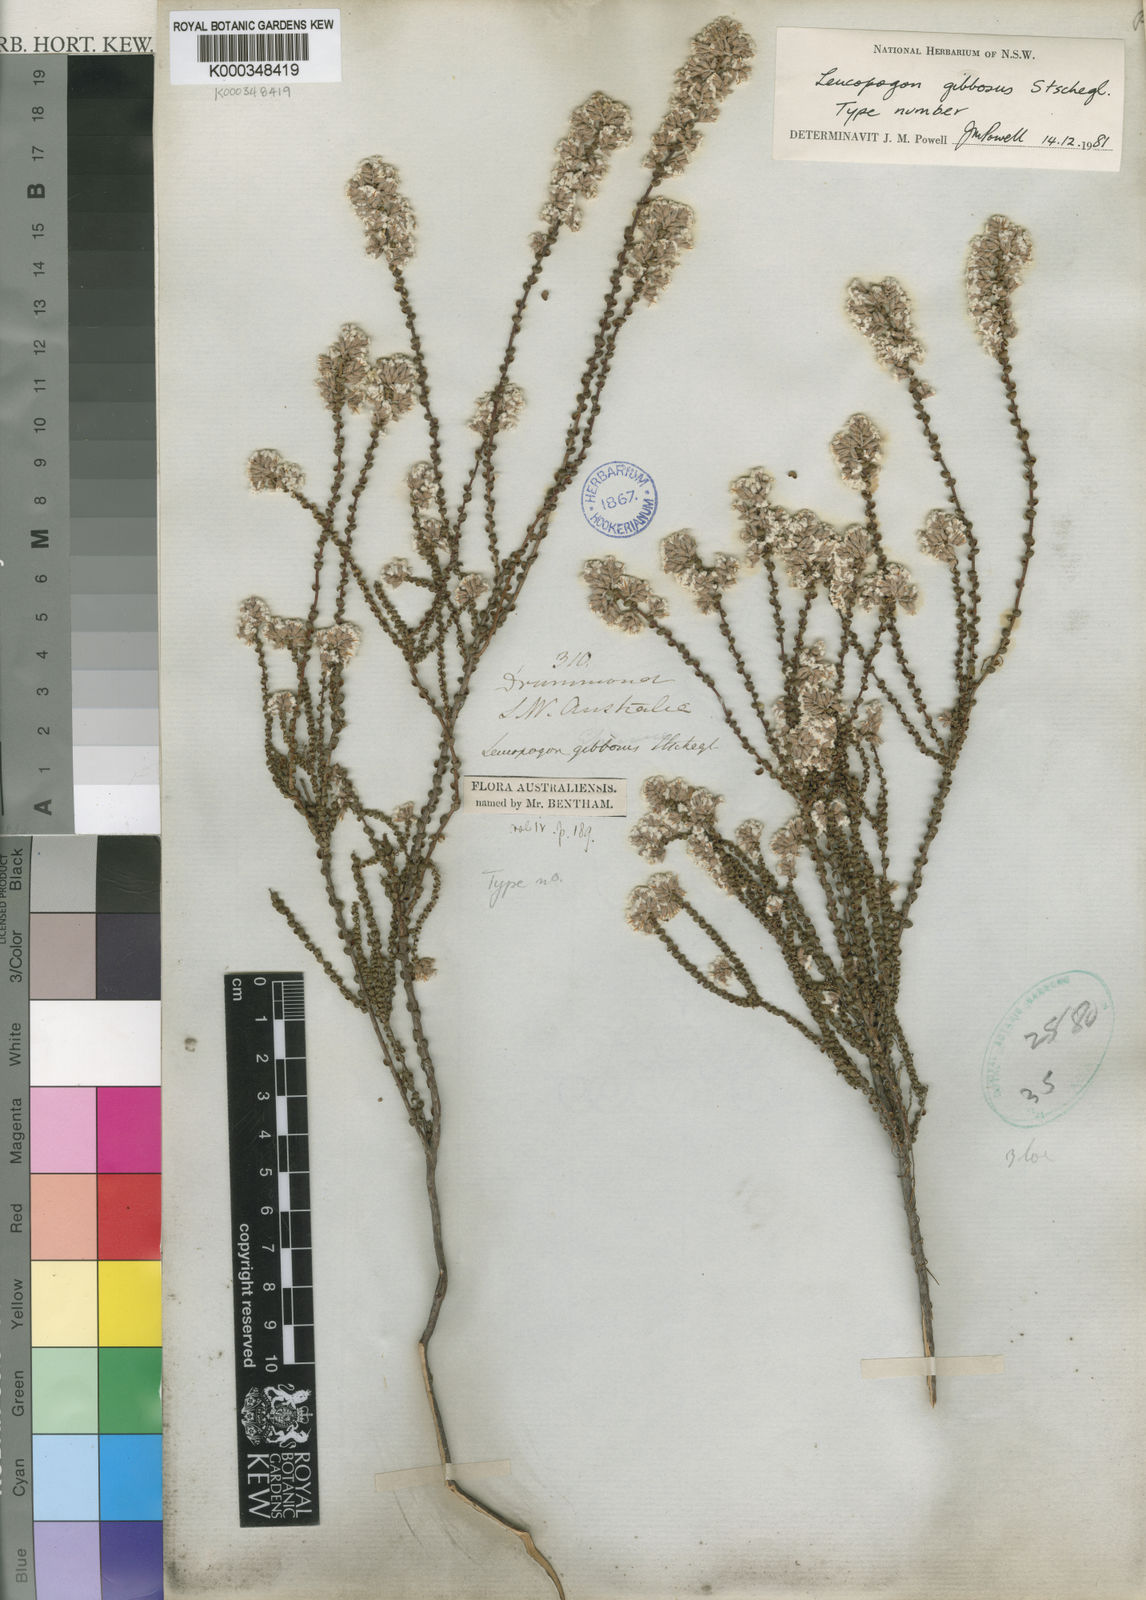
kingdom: Plantae
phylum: Tracheophyta
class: Magnoliopsida
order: Ericales
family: Ericaceae
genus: Leucopogon
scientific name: Leucopogon gibbosus
